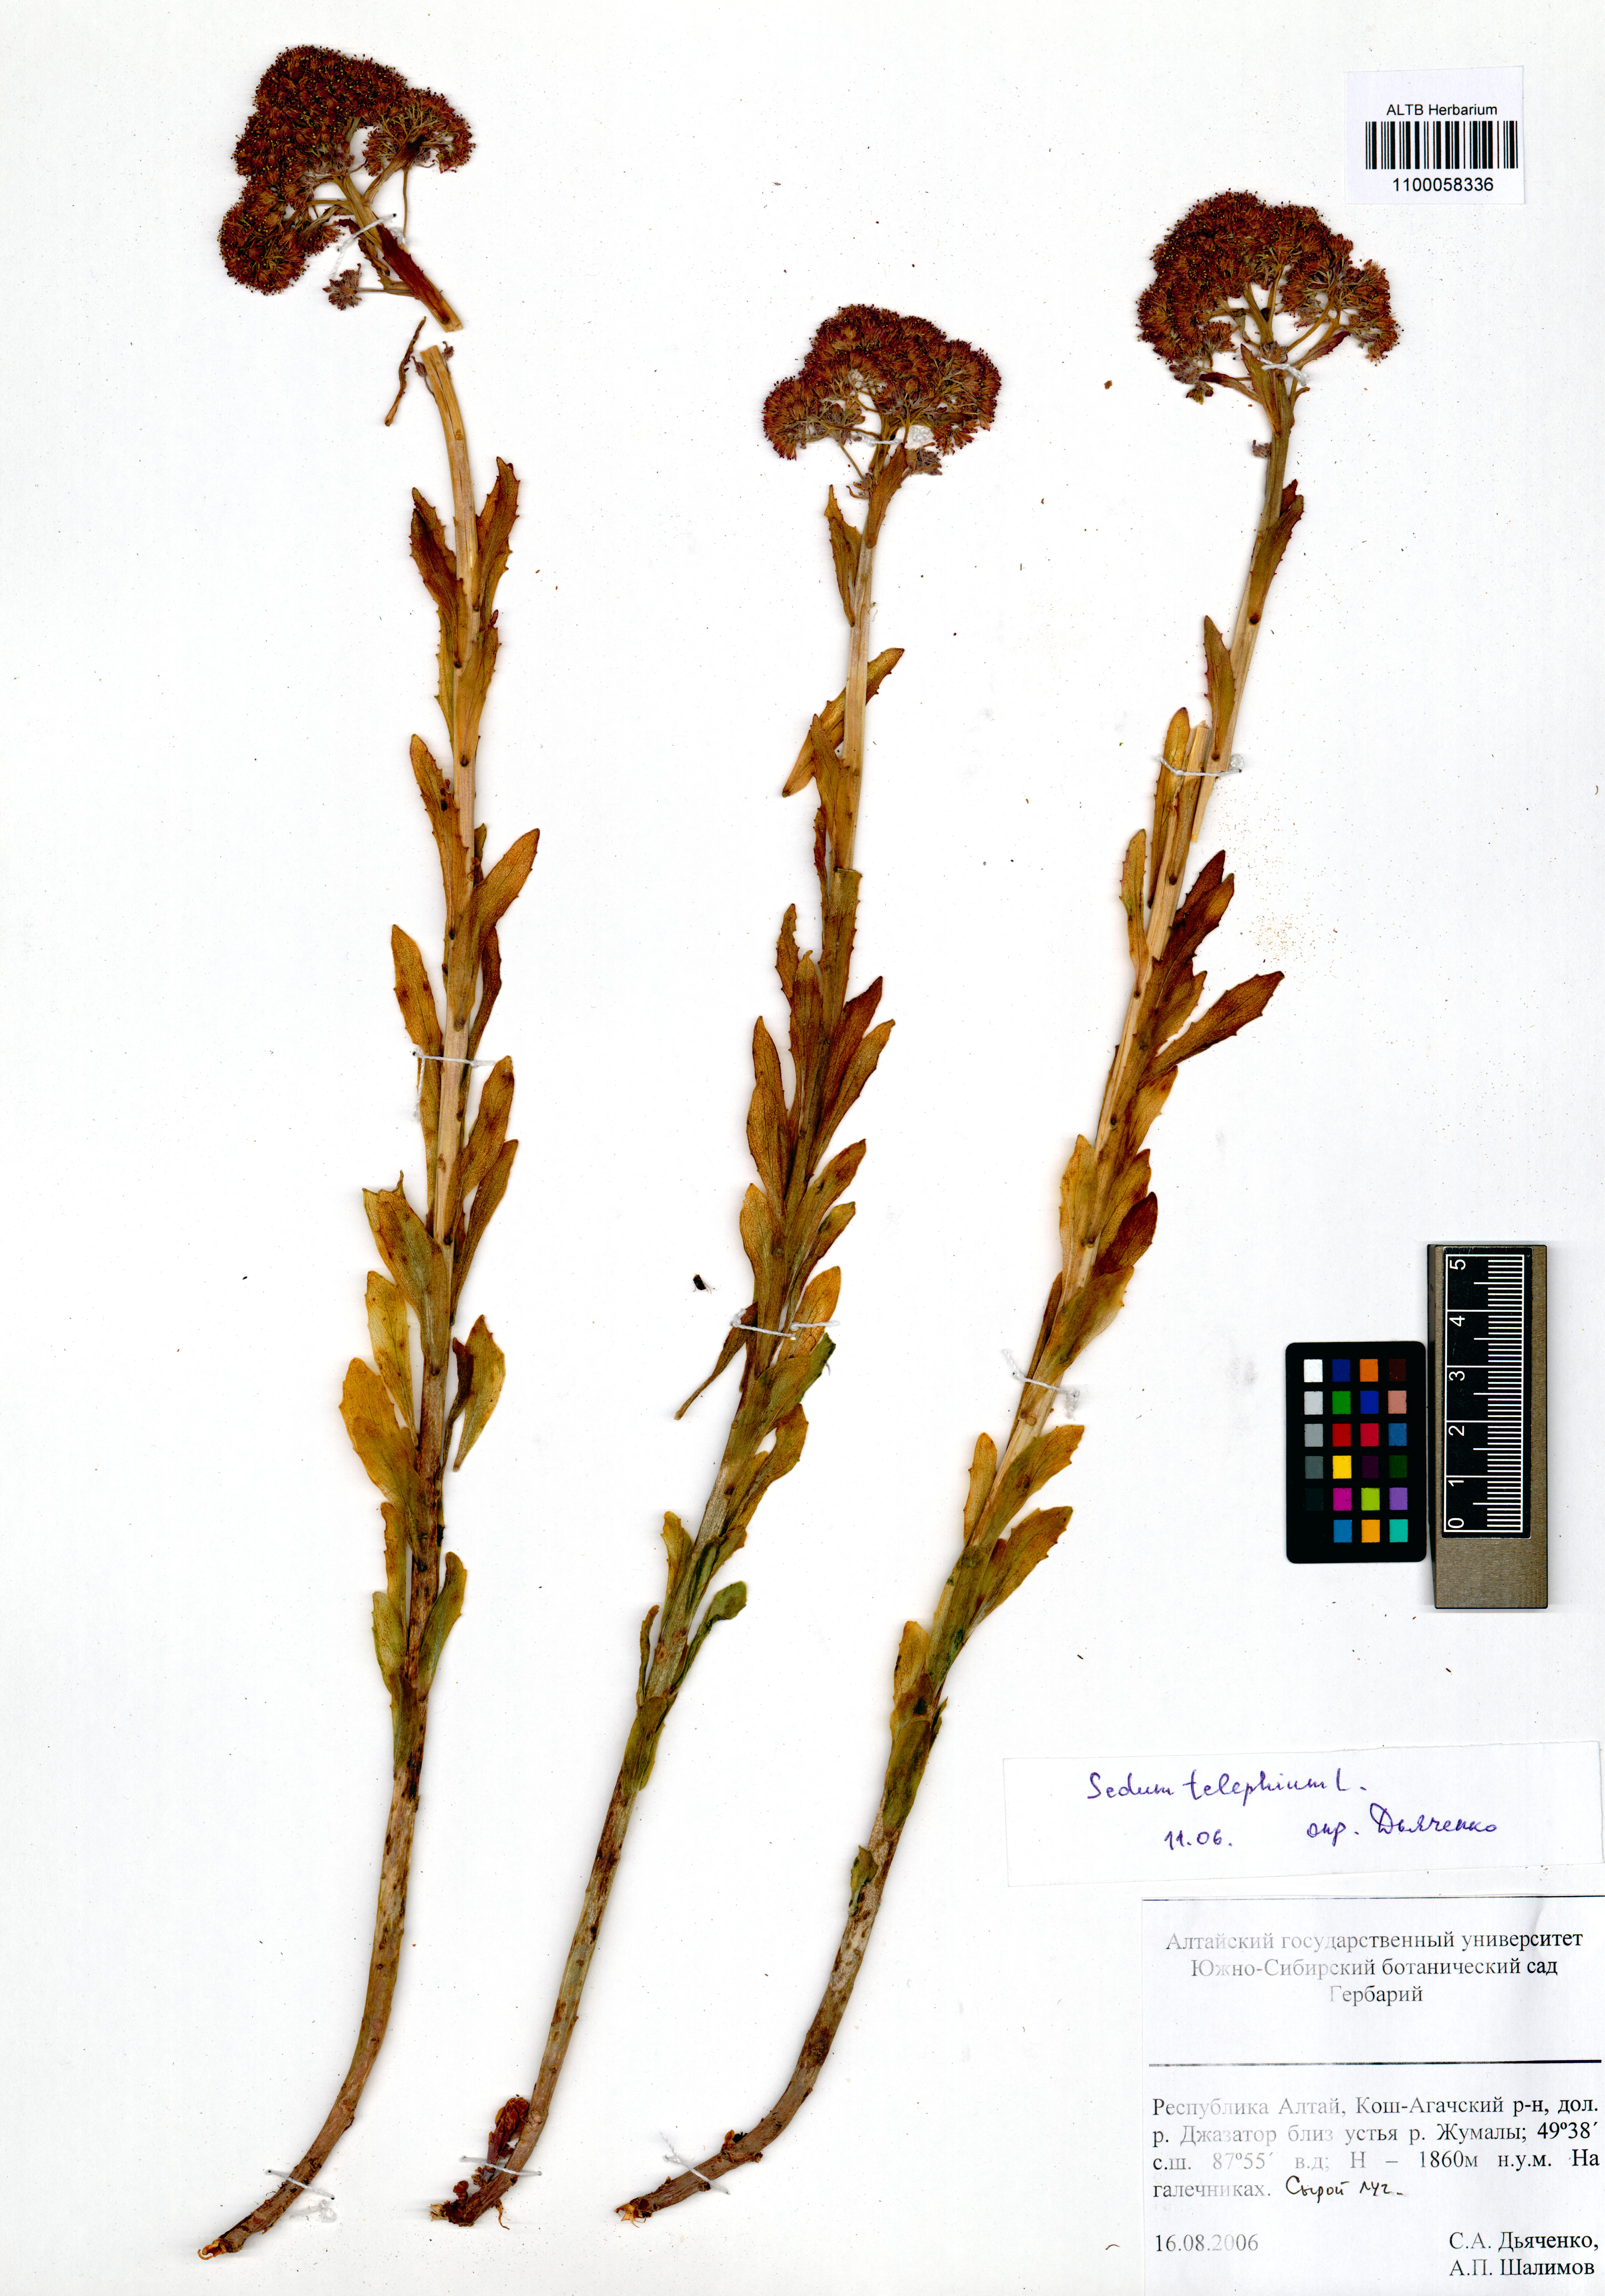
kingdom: Plantae
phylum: Tracheophyta
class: Magnoliopsida
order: Saxifragales
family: Crassulaceae
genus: Hylotelephium
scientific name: Hylotelephium telephium
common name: Live-forever
